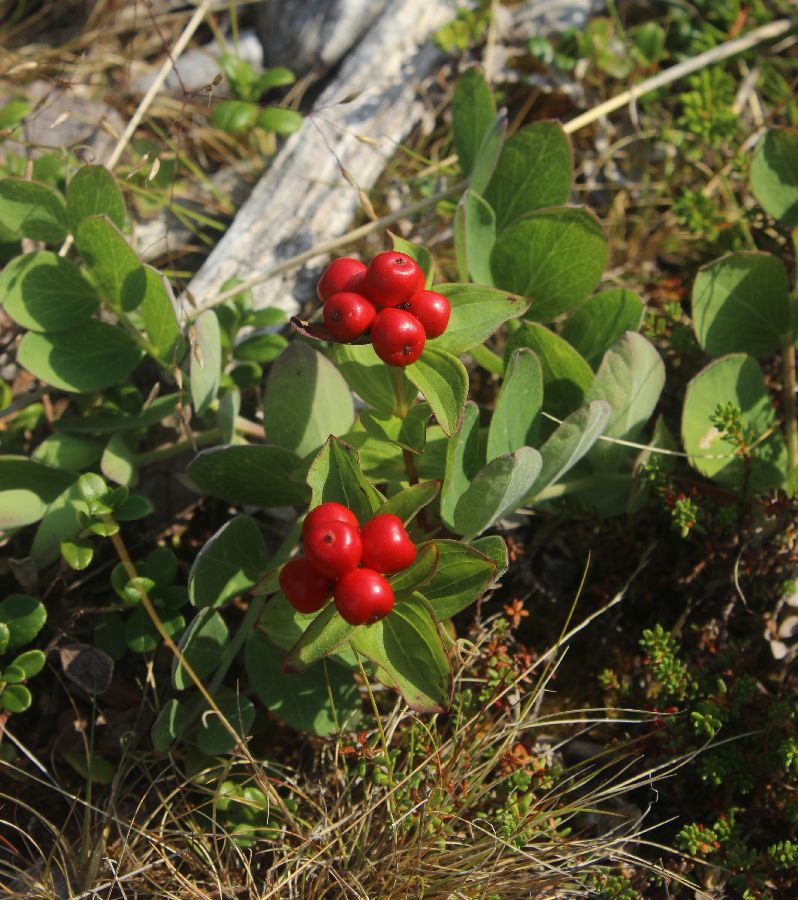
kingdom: Plantae
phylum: Tracheophyta
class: Magnoliopsida
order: Cornales
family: Cornaceae
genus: Cornus
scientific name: Cornus suecica
